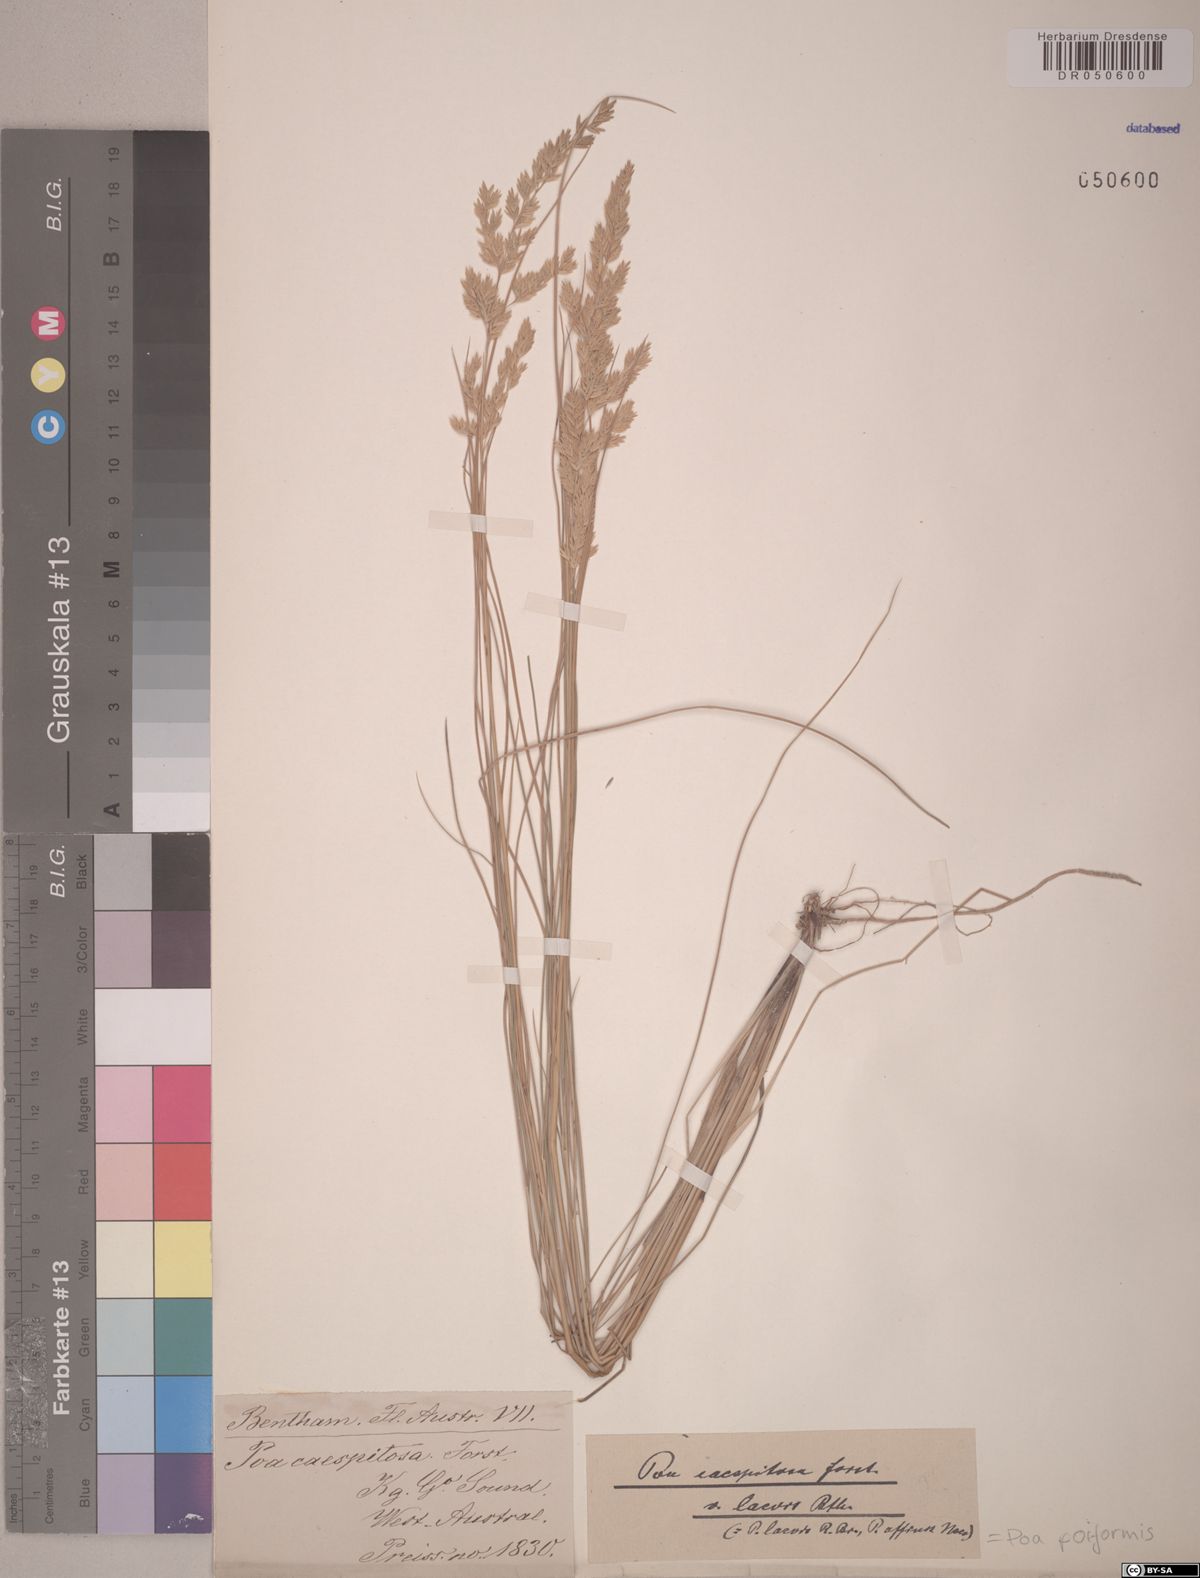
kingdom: Plantae
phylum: Tracheophyta
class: Liliopsida
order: Poales
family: Poaceae
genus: Poa
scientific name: Poa poiformis
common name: Tussock poa
